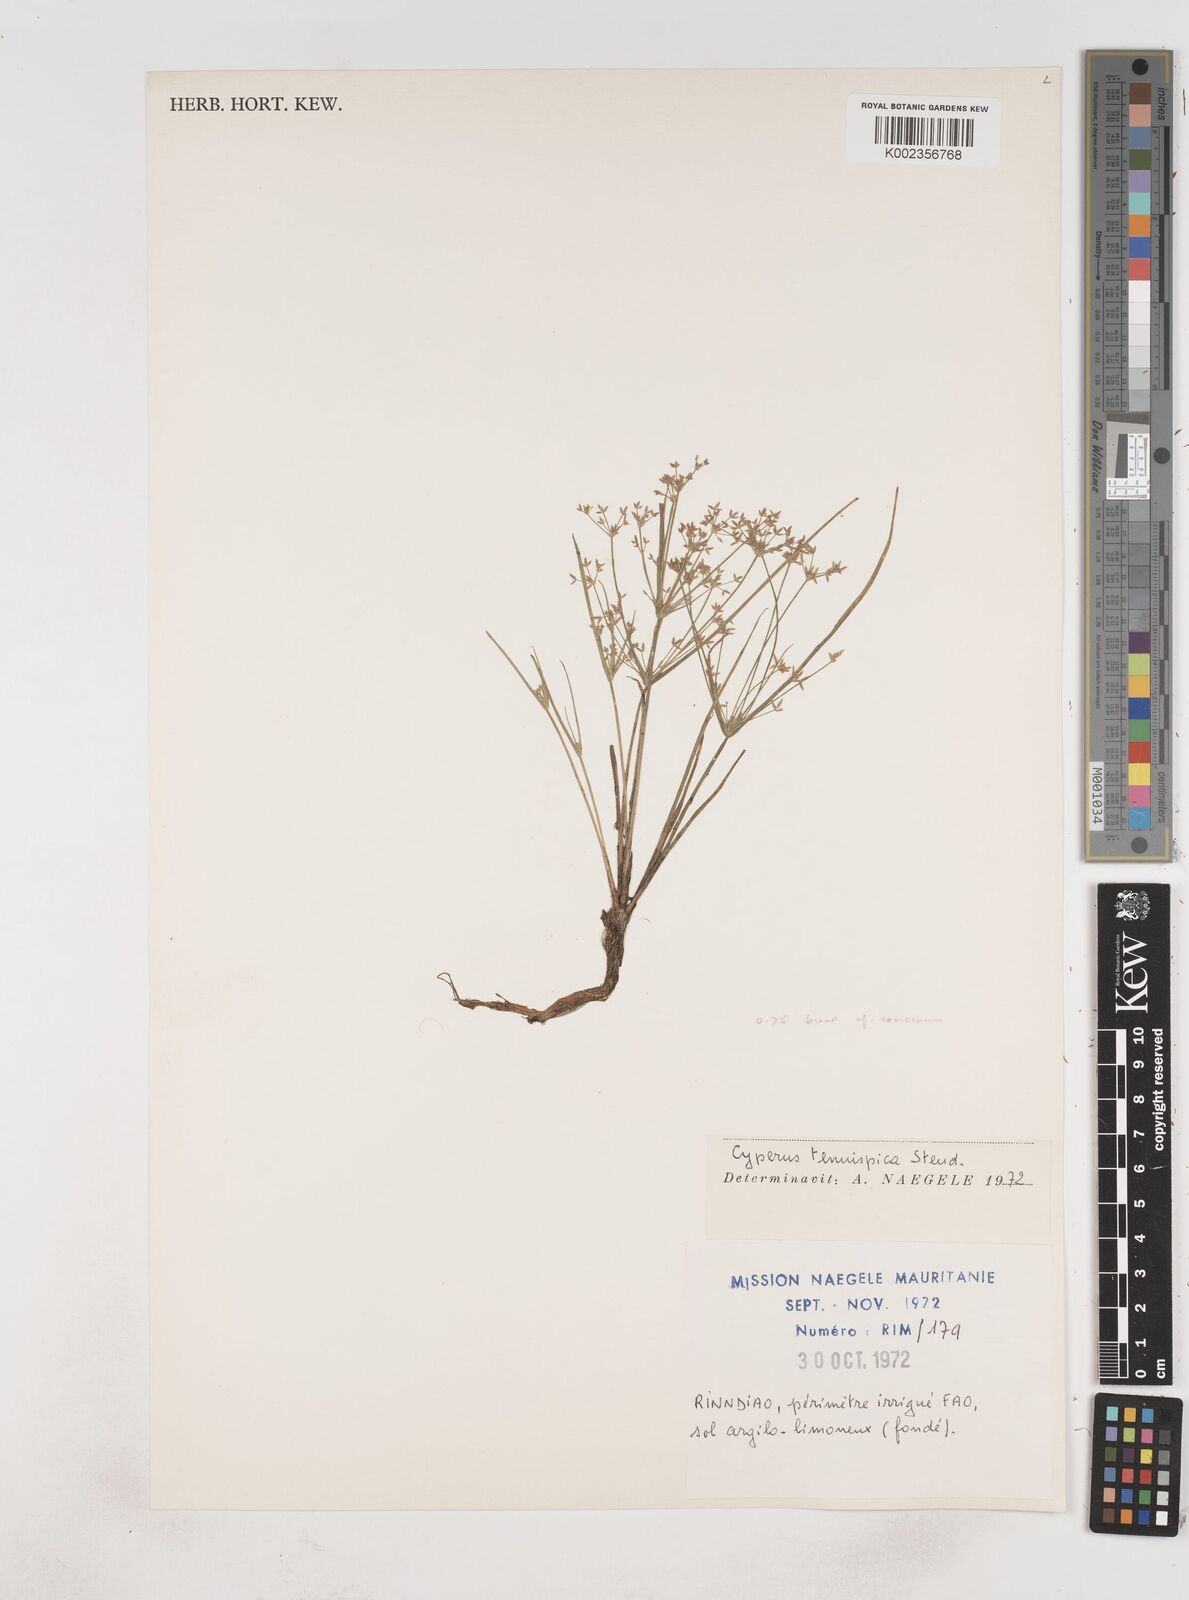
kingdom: Plantae
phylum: Tracheophyta
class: Liliopsida
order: Poales
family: Cyperaceae
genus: Cyperus
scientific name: Cyperus tenuispica
